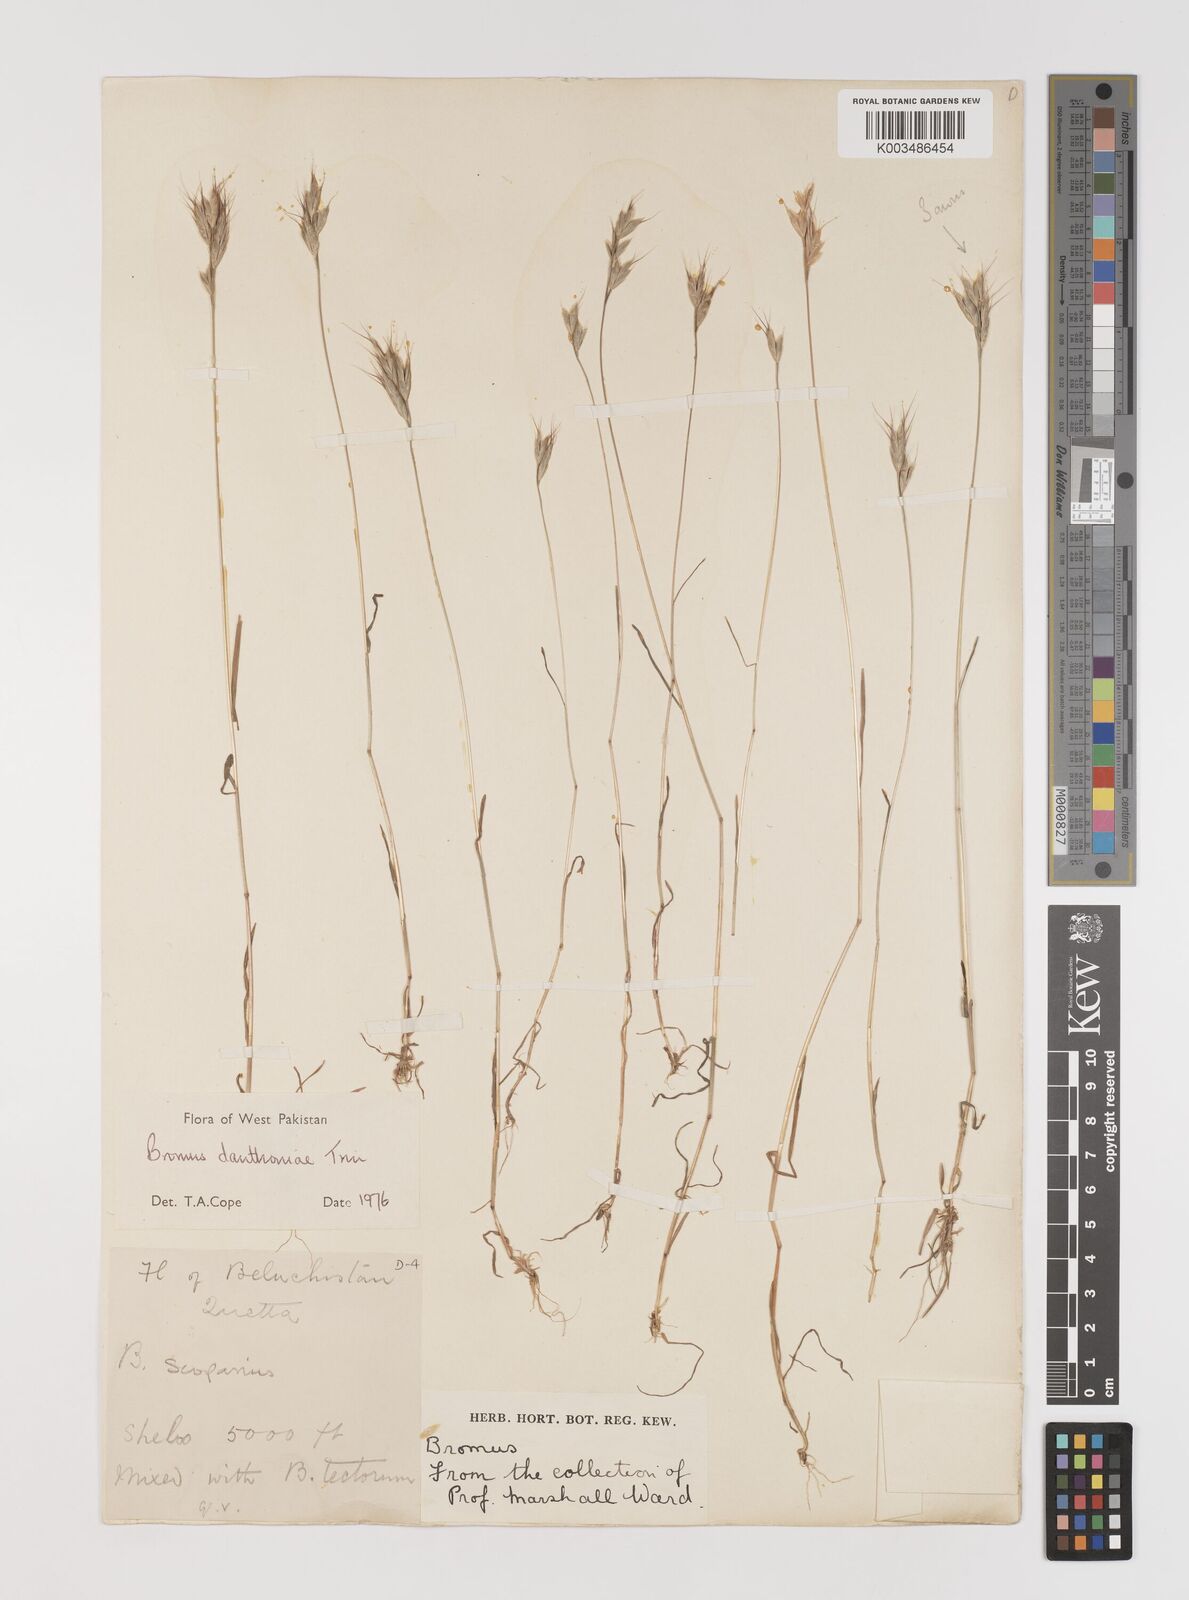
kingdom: Plantae
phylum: Tracheophyta
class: Liliopsida
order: Poales
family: Poaceae
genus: Bromus
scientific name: Bromus danthoniae
